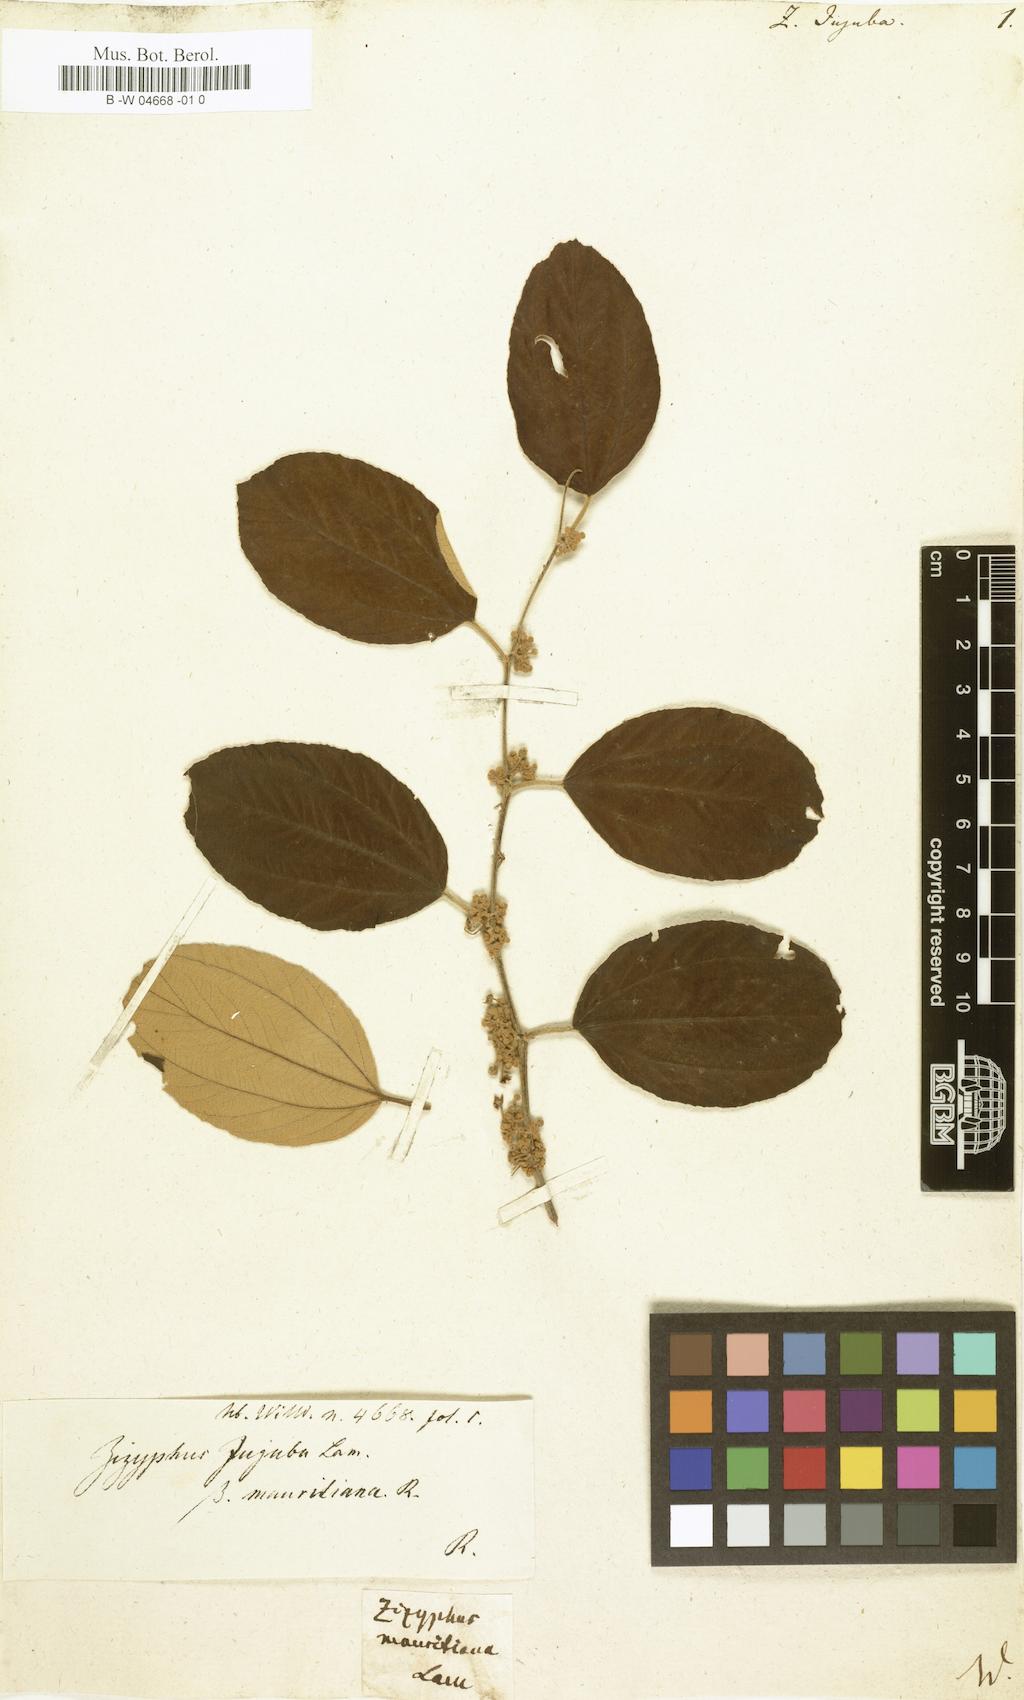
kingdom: Plantae
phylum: Tracheophyta
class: Magnoliopsida
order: Rosales
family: Rhamnaceae
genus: Ziziphus
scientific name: Ziziphus mauritiana
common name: Indian jujube
